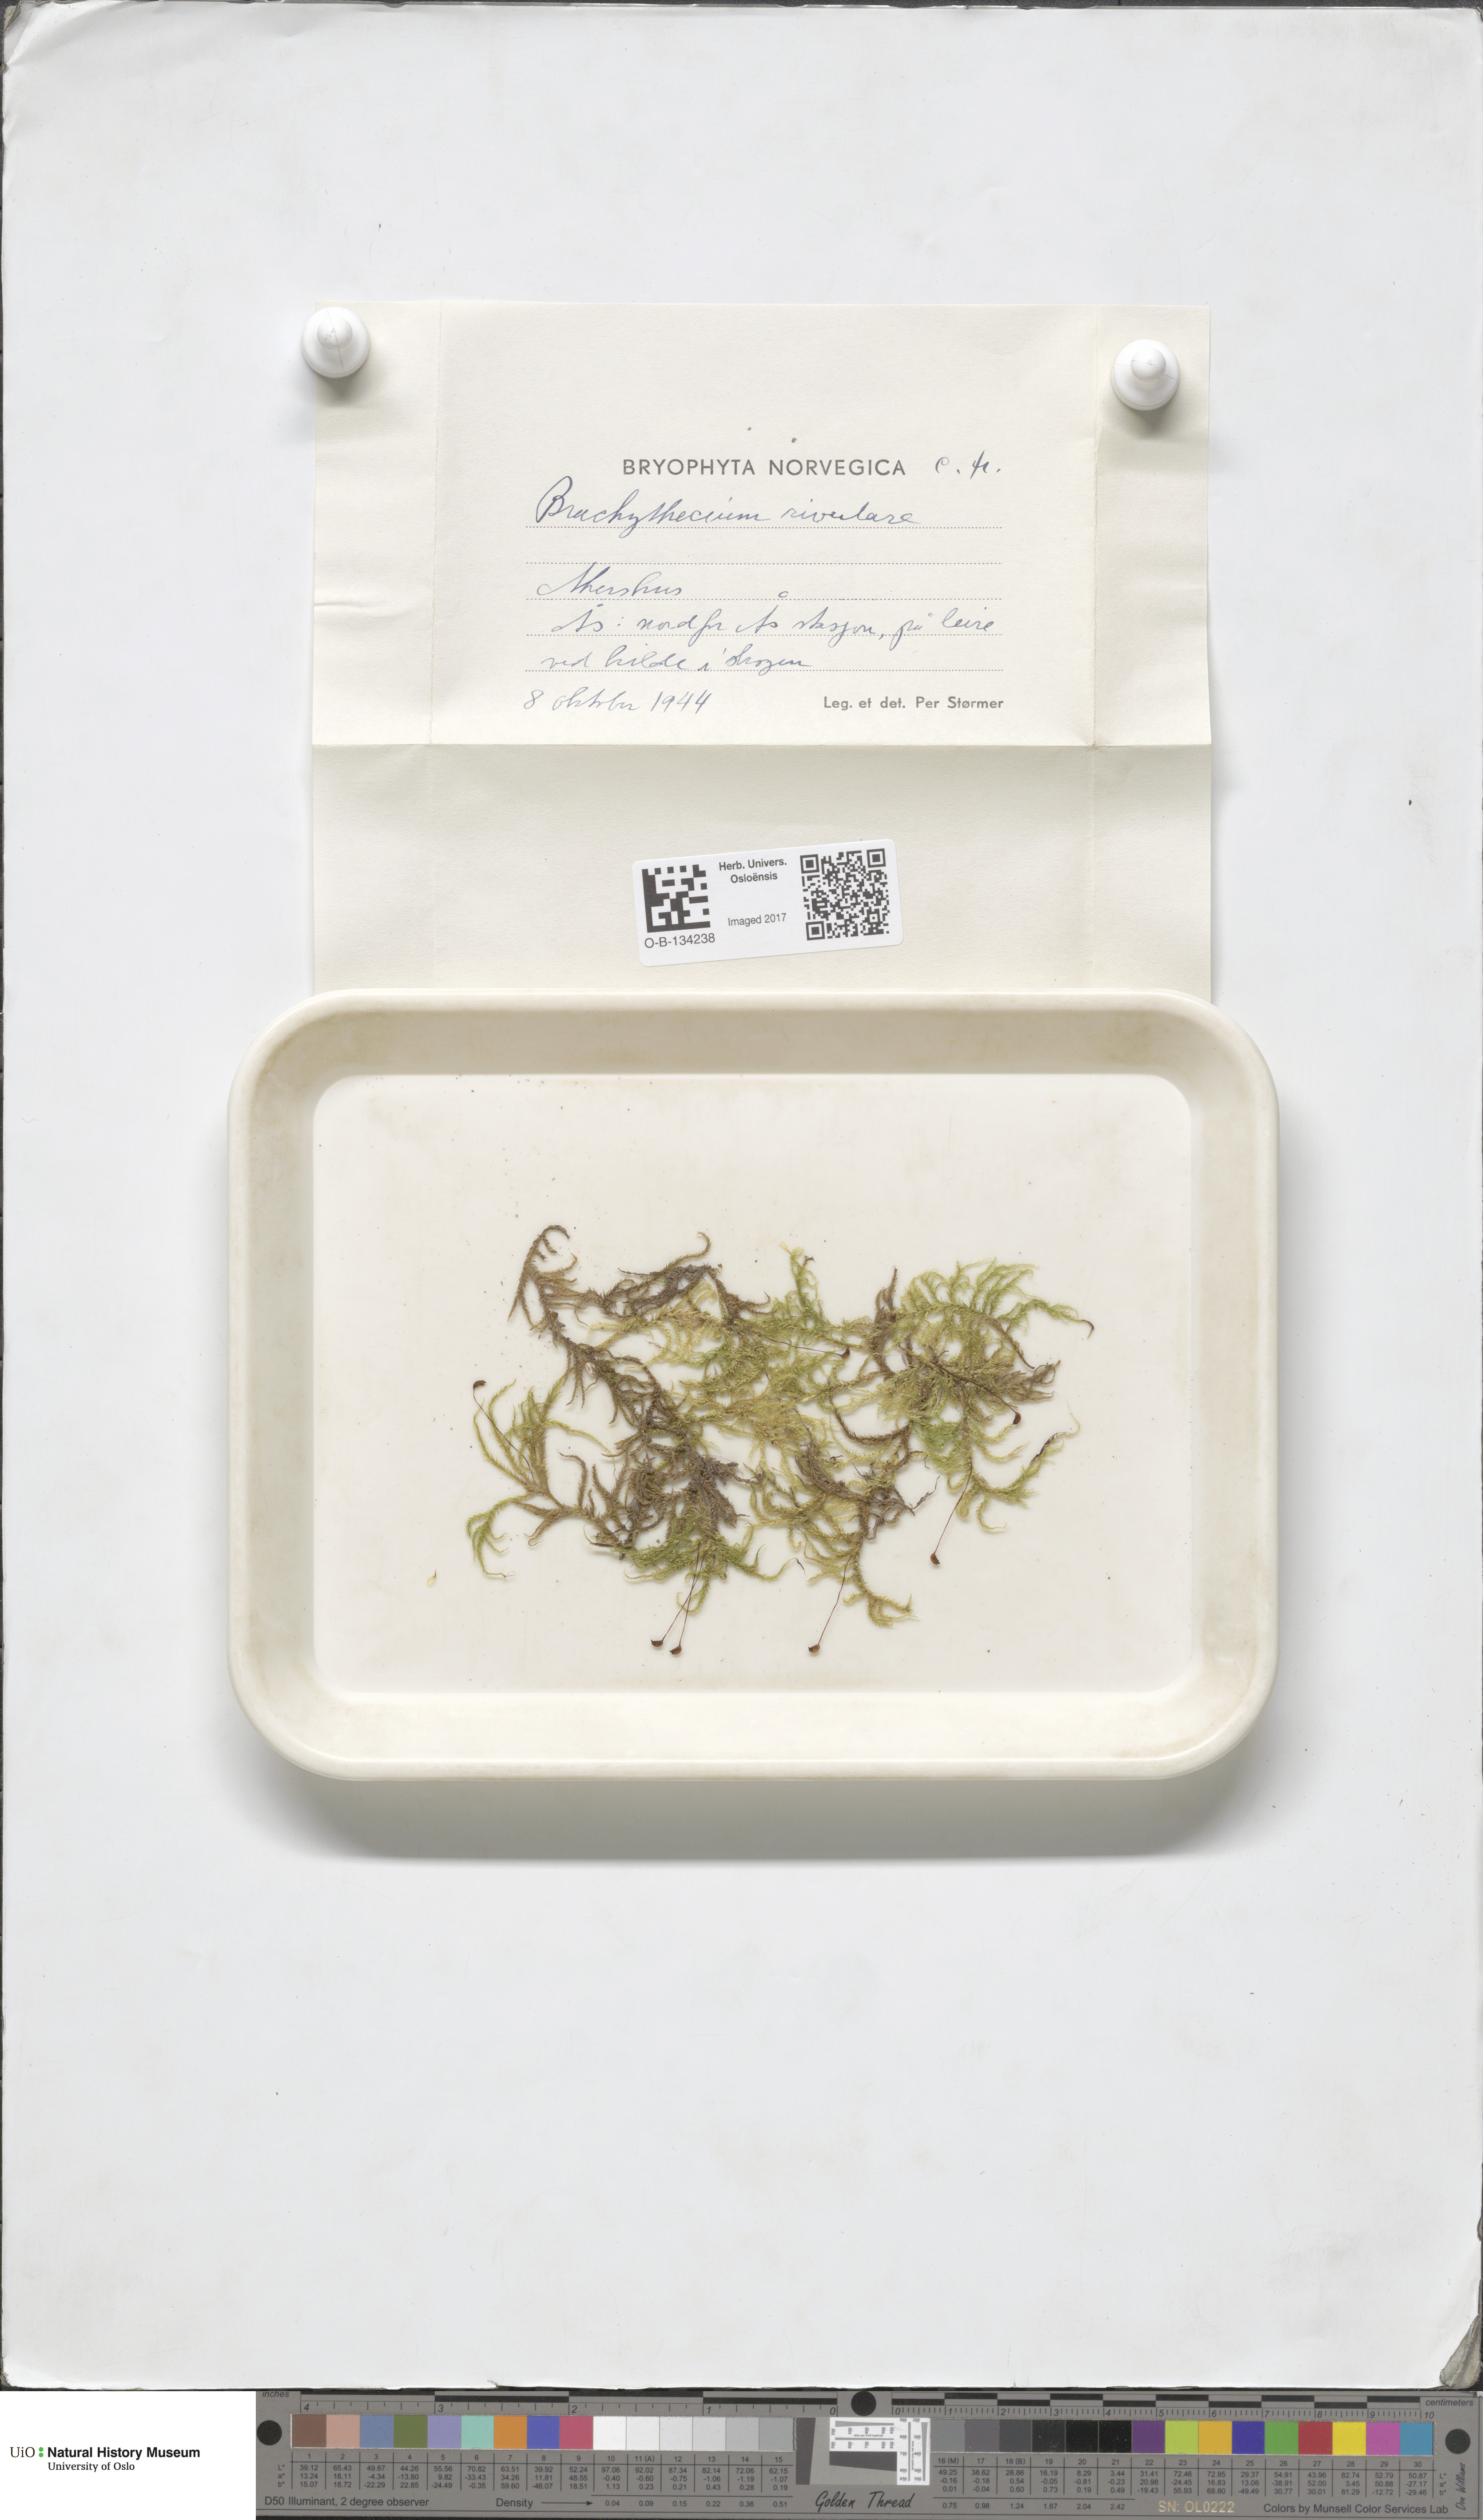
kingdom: Plantae
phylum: Bryophyta
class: Bryopsida
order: Hypnales
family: Brachytheciaceae
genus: Brachythecium
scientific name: Brachythecium rivulare
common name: River ragged moss
